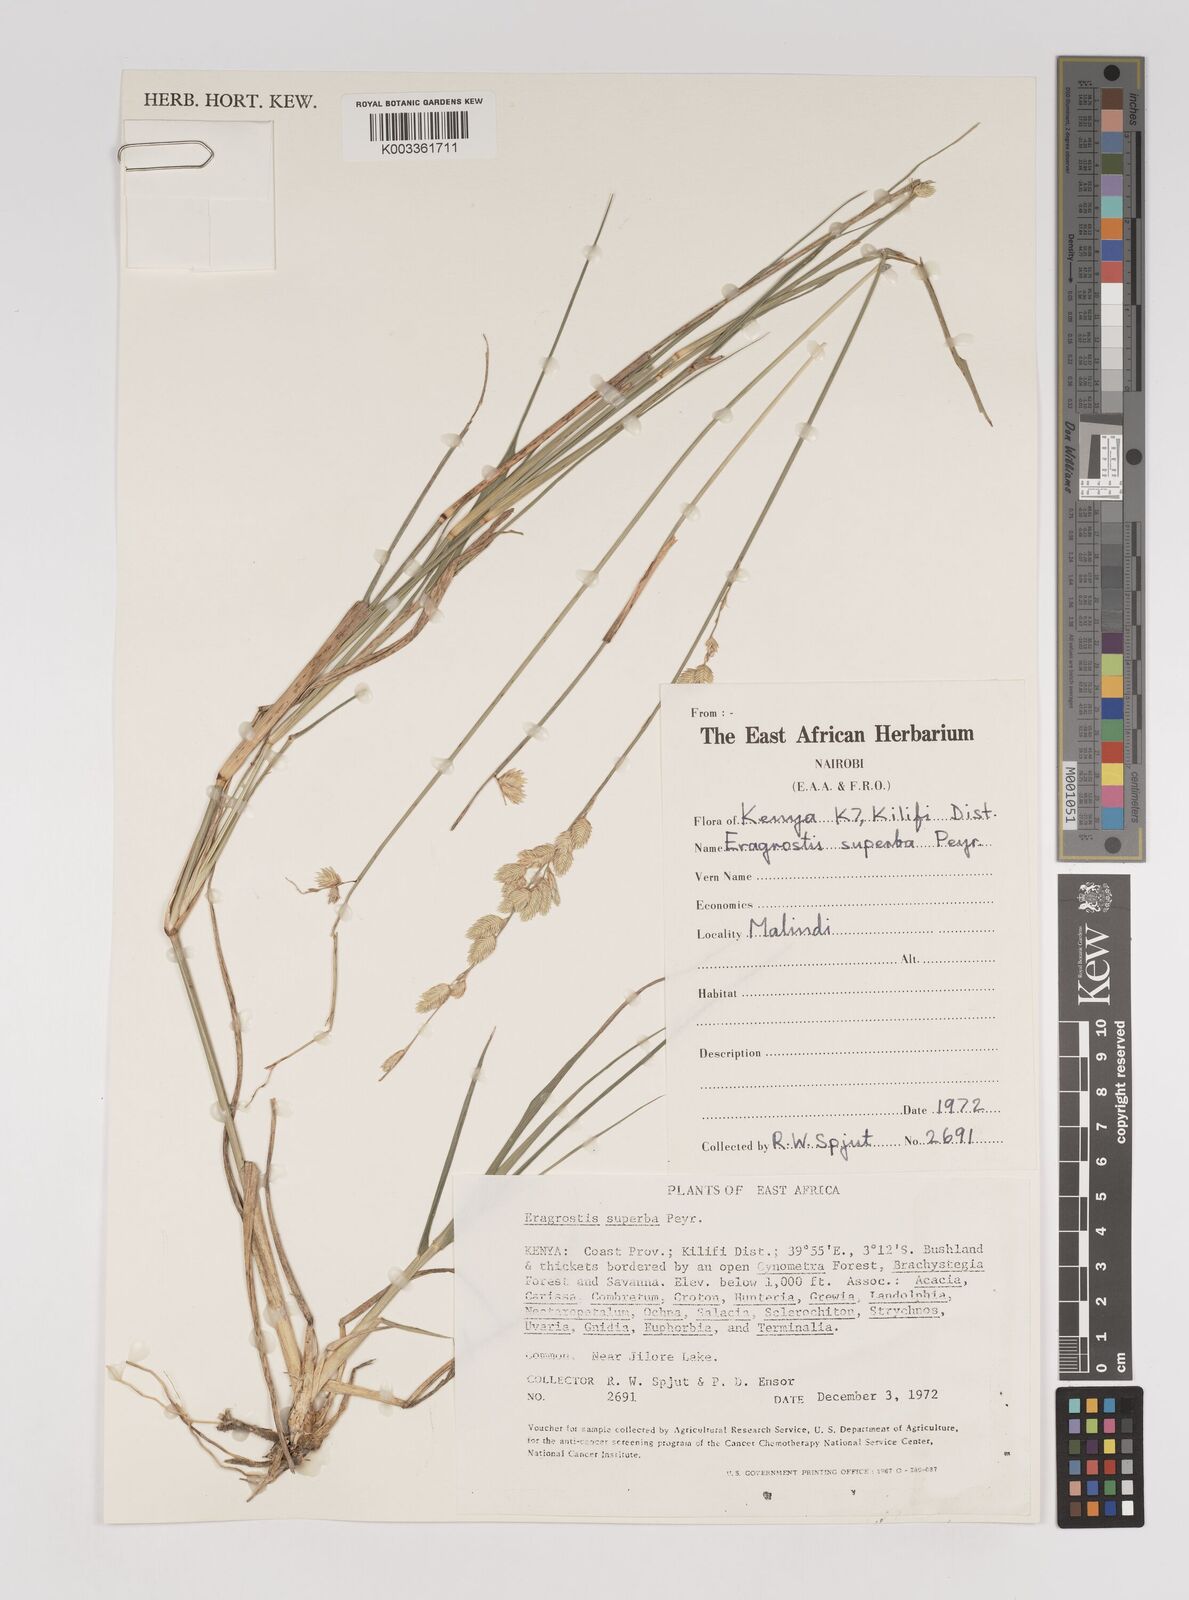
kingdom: Plantae
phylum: Tracheophyta
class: Liliopsida
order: Poales
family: Poaceae
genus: Eragrostis
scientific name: Eragrostis superba
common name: Wilman lovegrass
